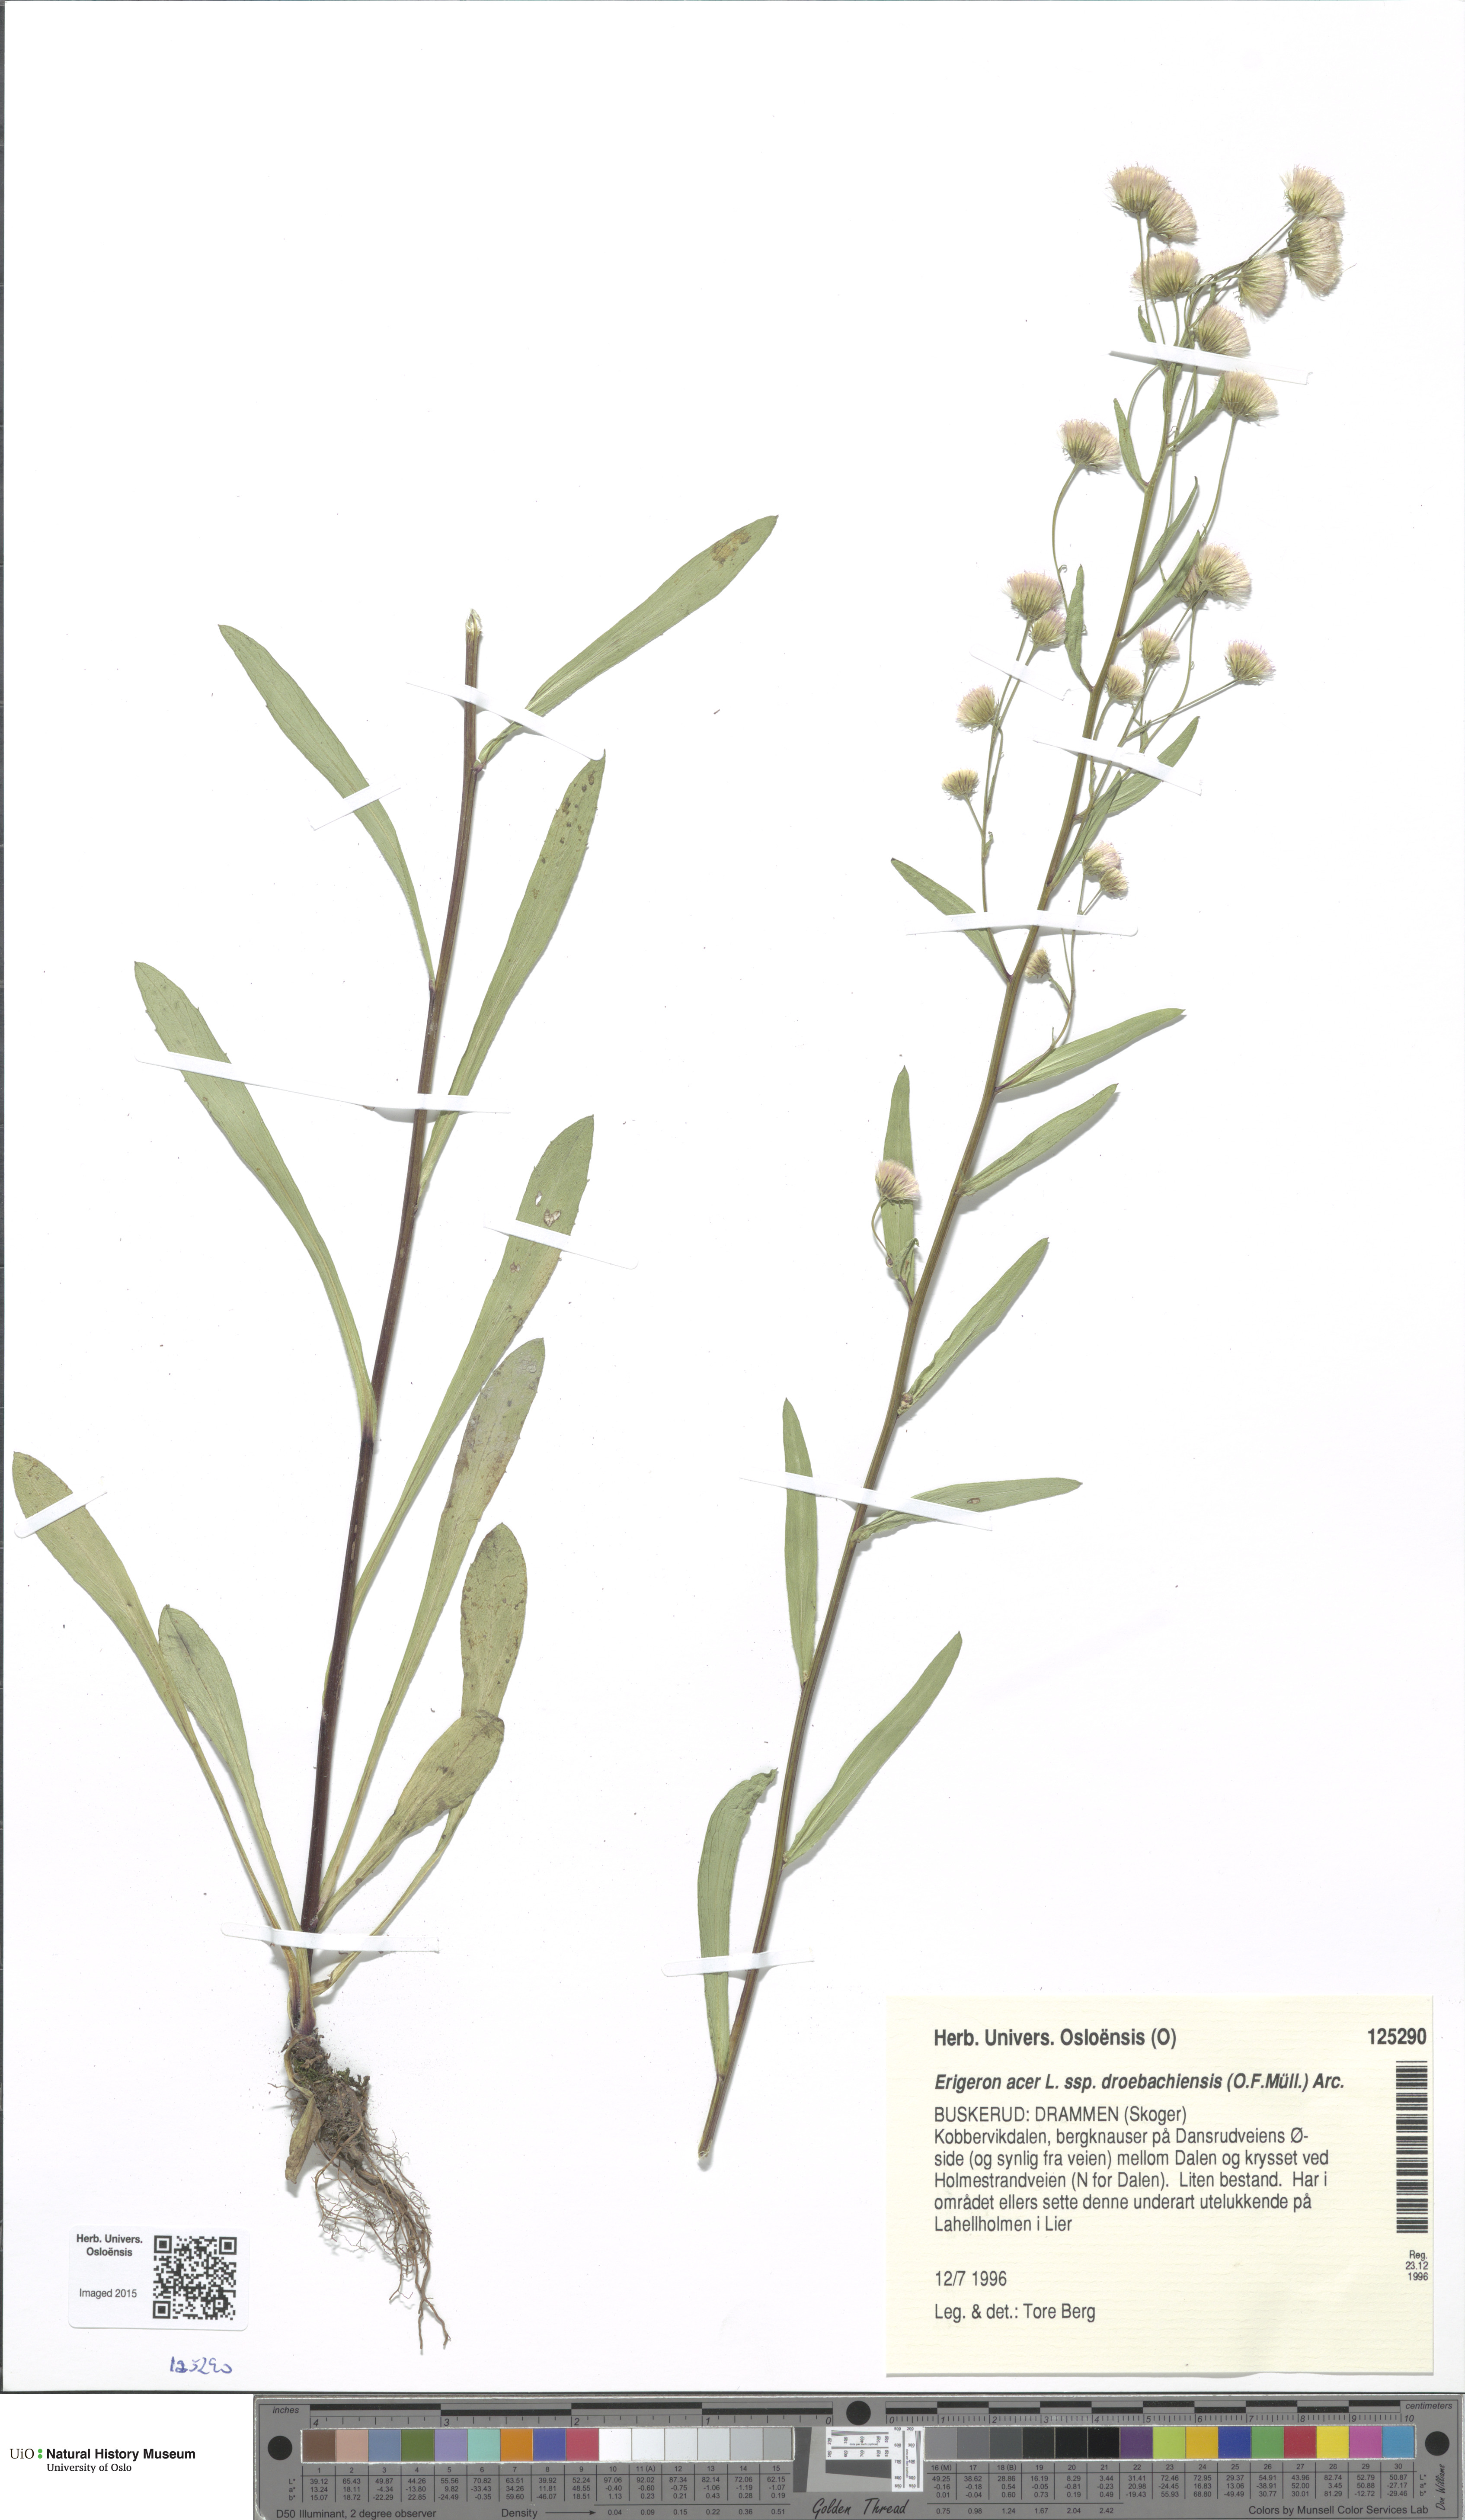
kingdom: Plantae
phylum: Tracheophyta
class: Magnoliopsida
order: Asterales
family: Asteraceae
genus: Erigeron
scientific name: Erigeron droebachiensis
